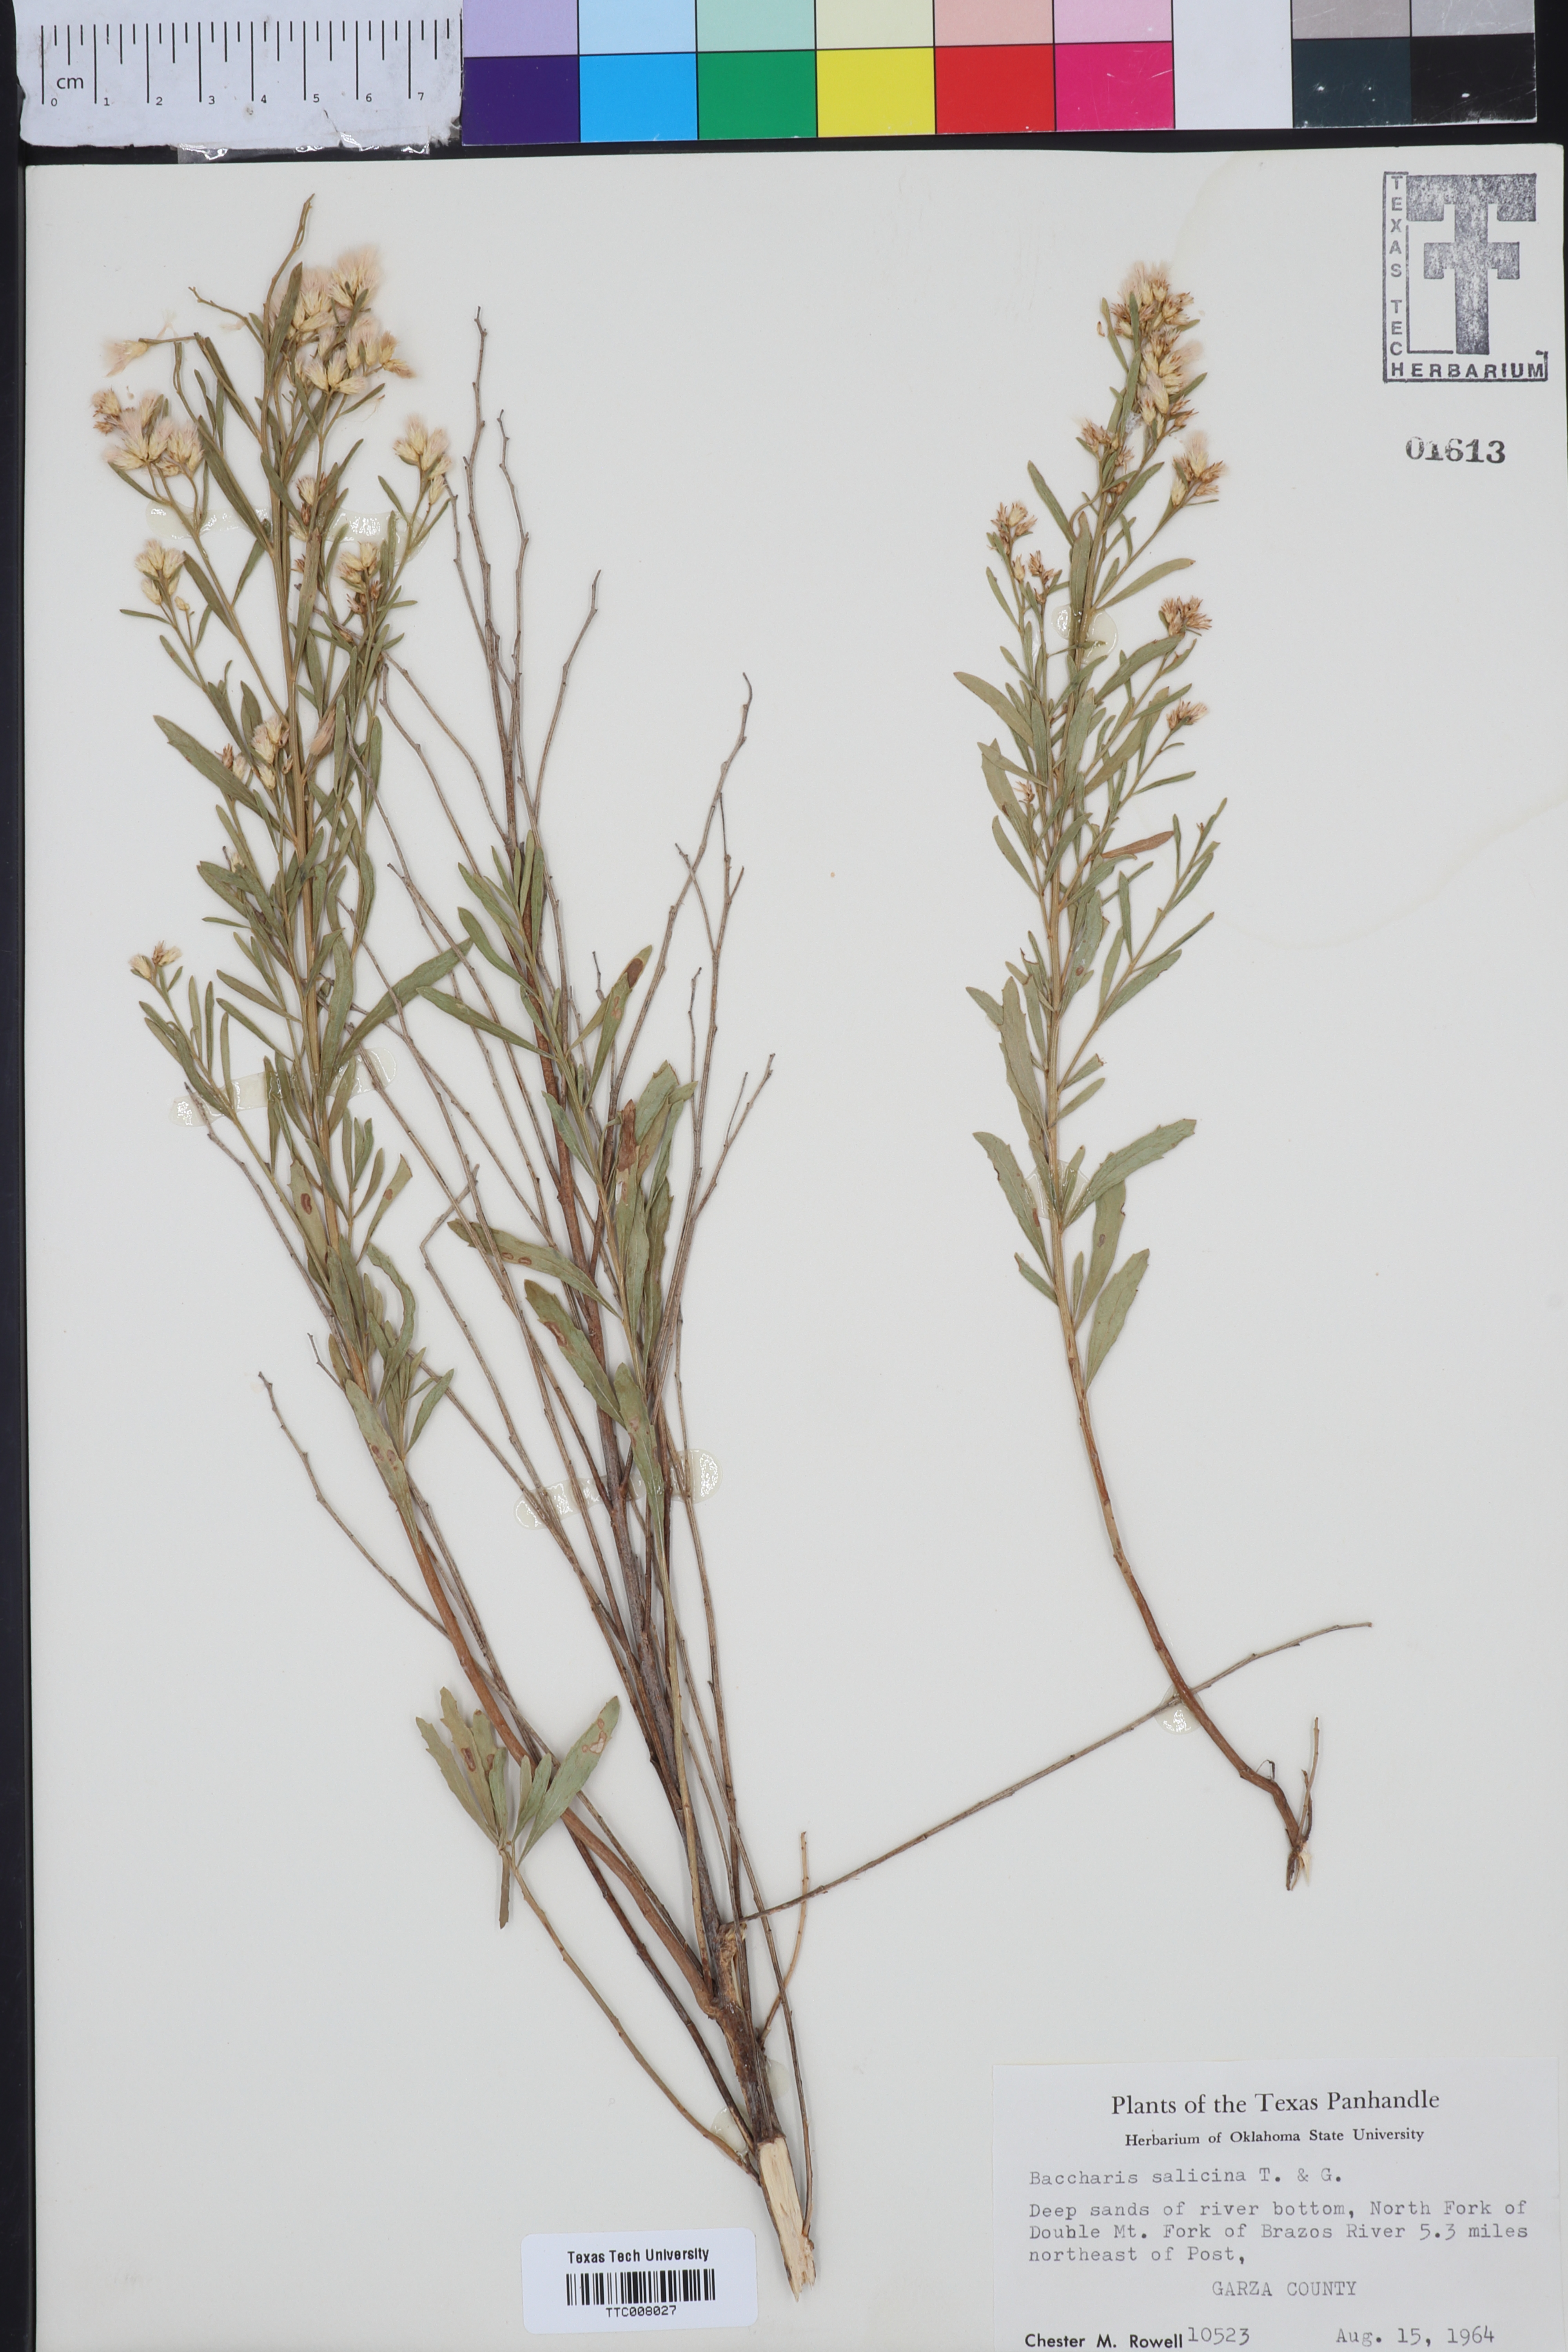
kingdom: Plantae
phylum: Tracheophyta
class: Magnoliopsida
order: Asterales
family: Asteraceae
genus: Baccharis
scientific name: Baccharis salicina
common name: Willow baccharis
